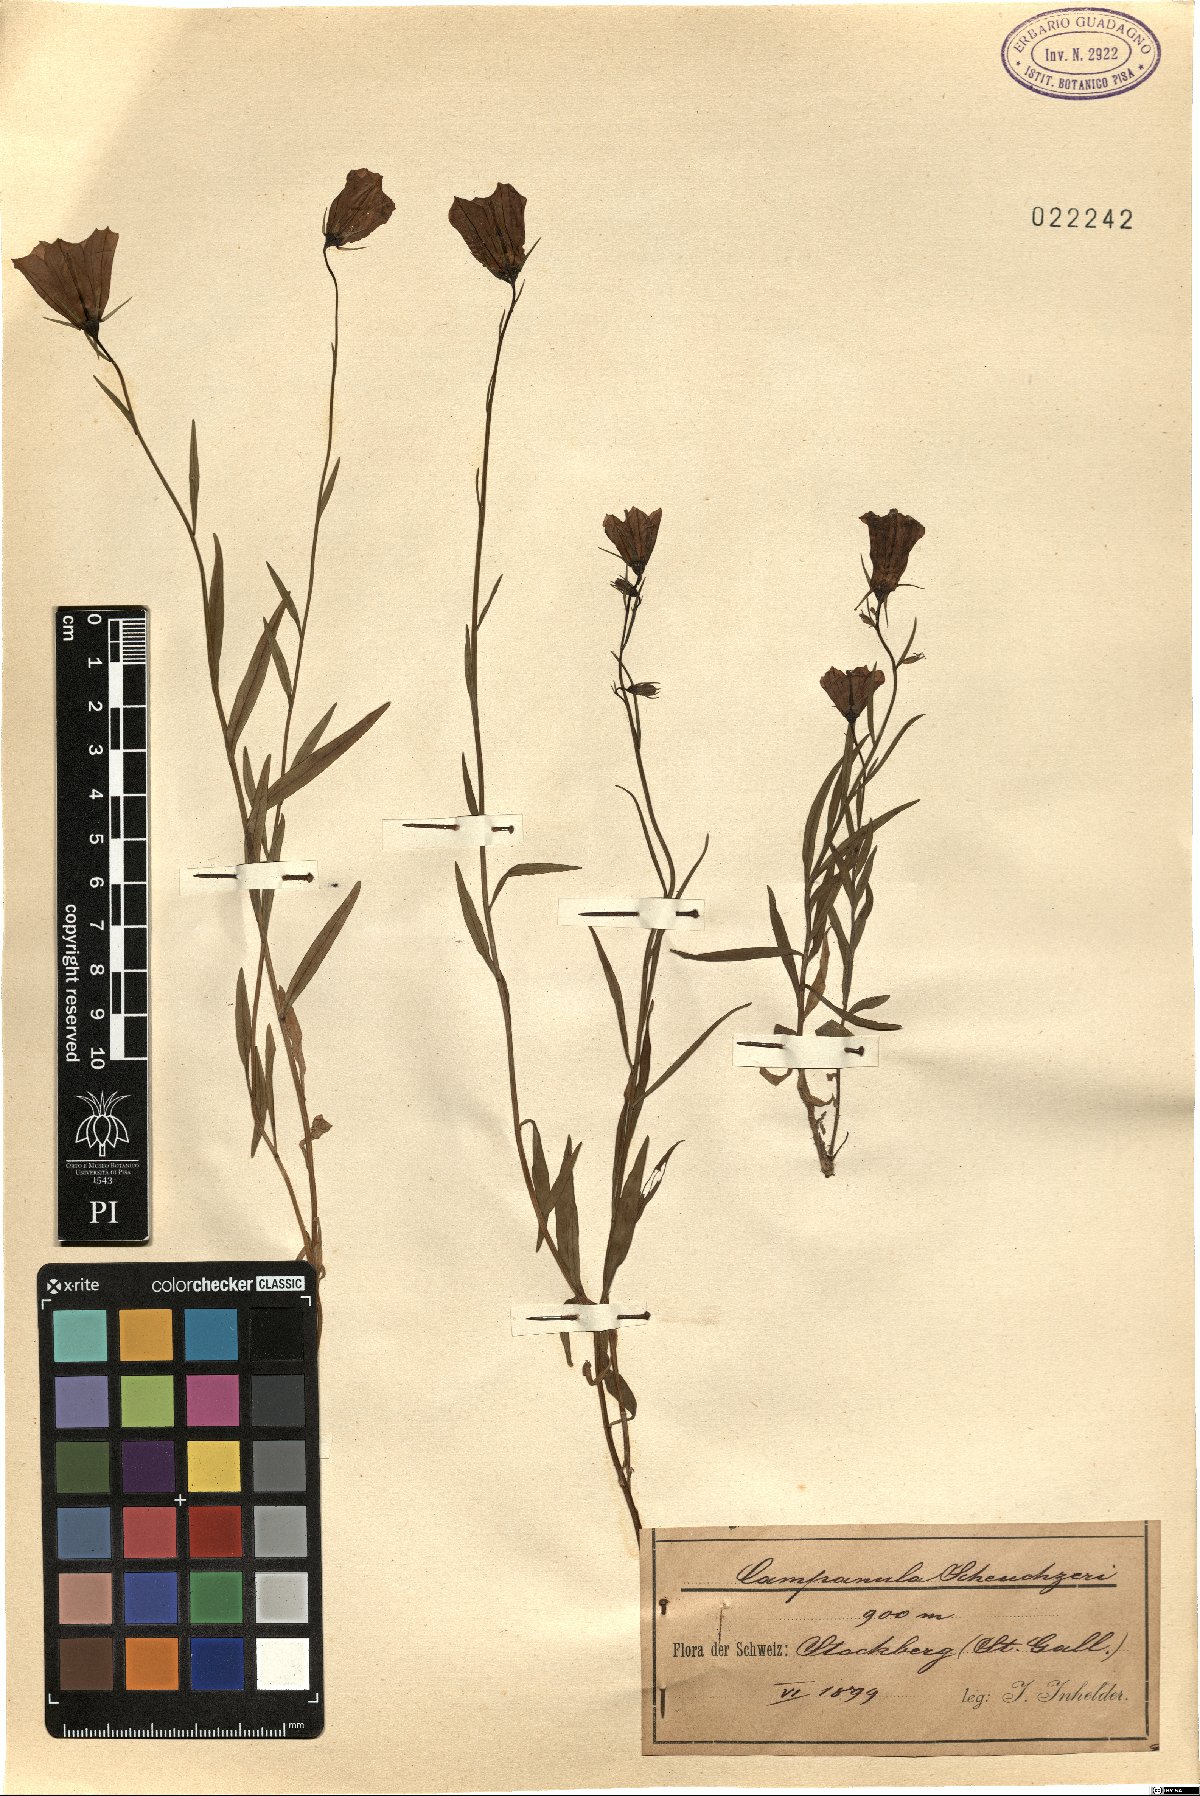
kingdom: Plantae
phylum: Tracheophyta
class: Magnoliopsida
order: Asterales
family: Campanulaceae
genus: Campanula
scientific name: Campanula scheuchzeri
